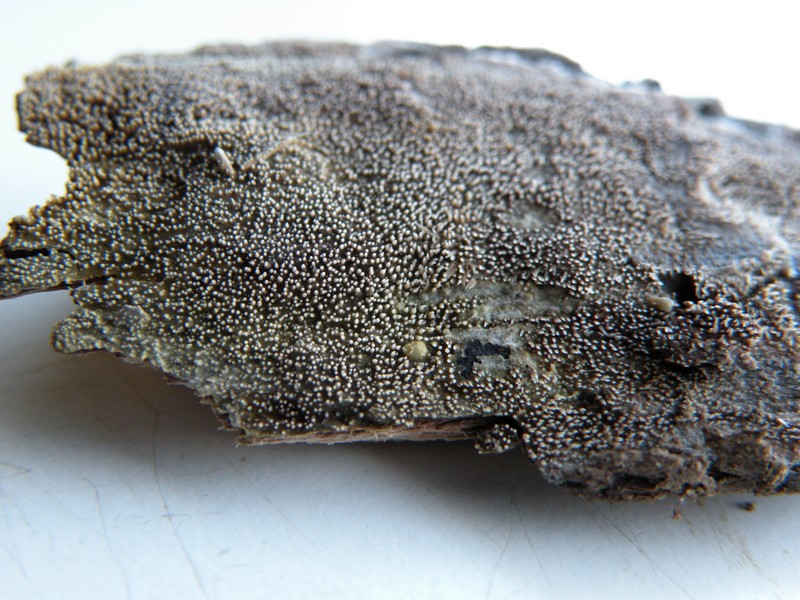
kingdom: Fungi
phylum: Basidiomycota
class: Agaricomycetes
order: Polyporales
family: Meruliaceae
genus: Mycoacia
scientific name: Mycoacia fuscoatra
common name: mørk vokspig
